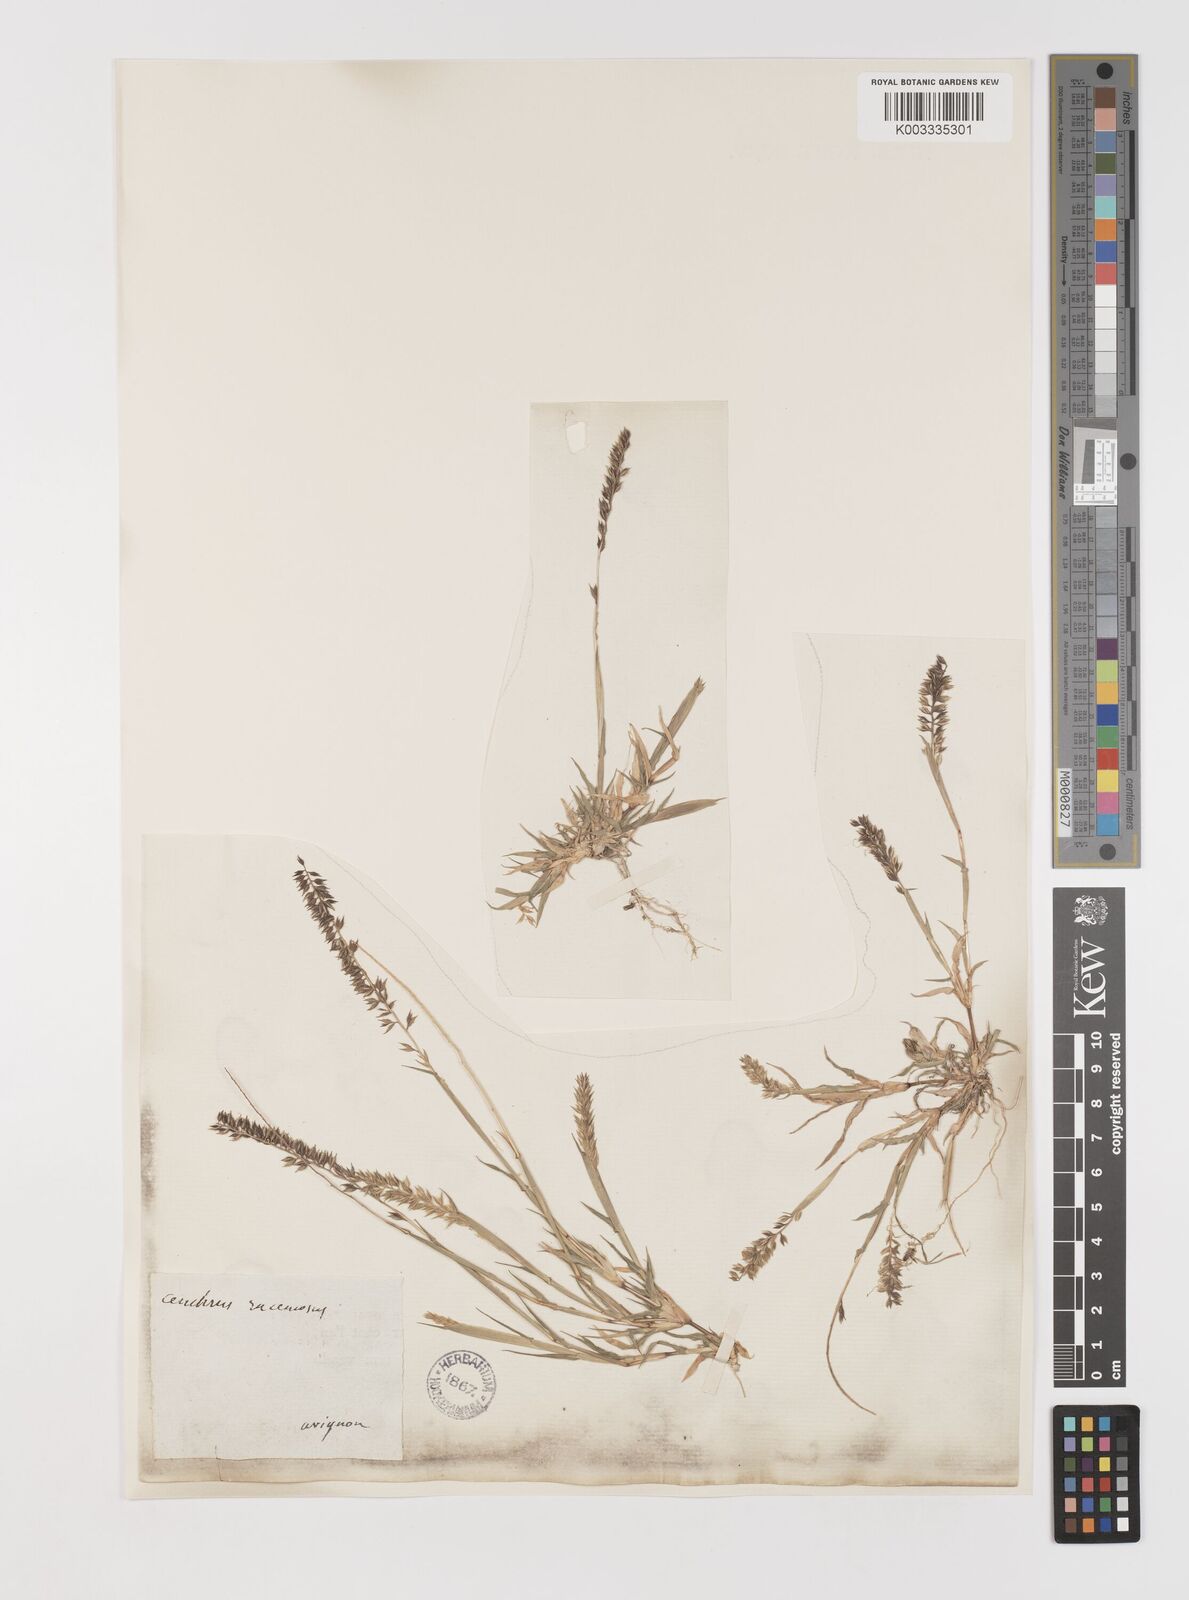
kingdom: Plantae
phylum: Tracheophyta
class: Liliopsida
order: Poales
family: Poaceae
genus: Tragus
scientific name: Tragus racemosus
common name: European bur-grass
